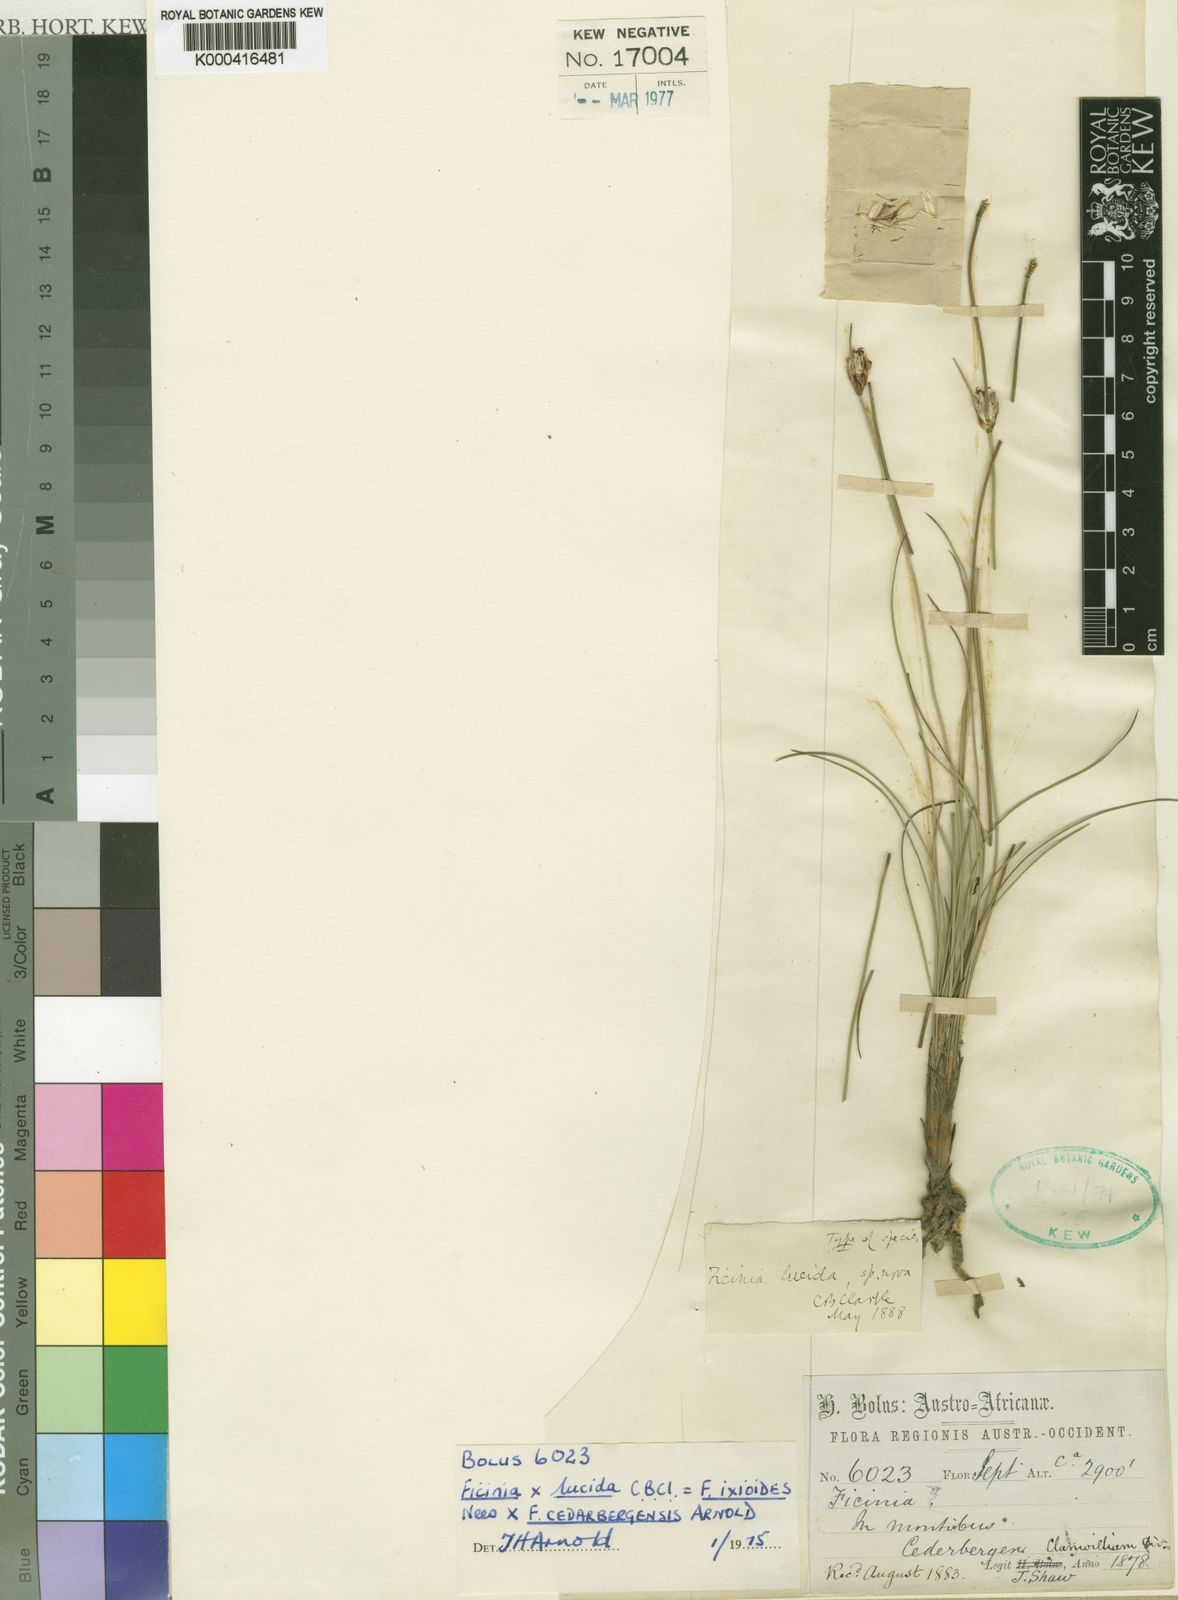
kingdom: Plantae
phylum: Tracheophyta
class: Liliopsida
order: Poales
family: Cyperaceae
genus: Ficinia
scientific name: Ficinia lucida
